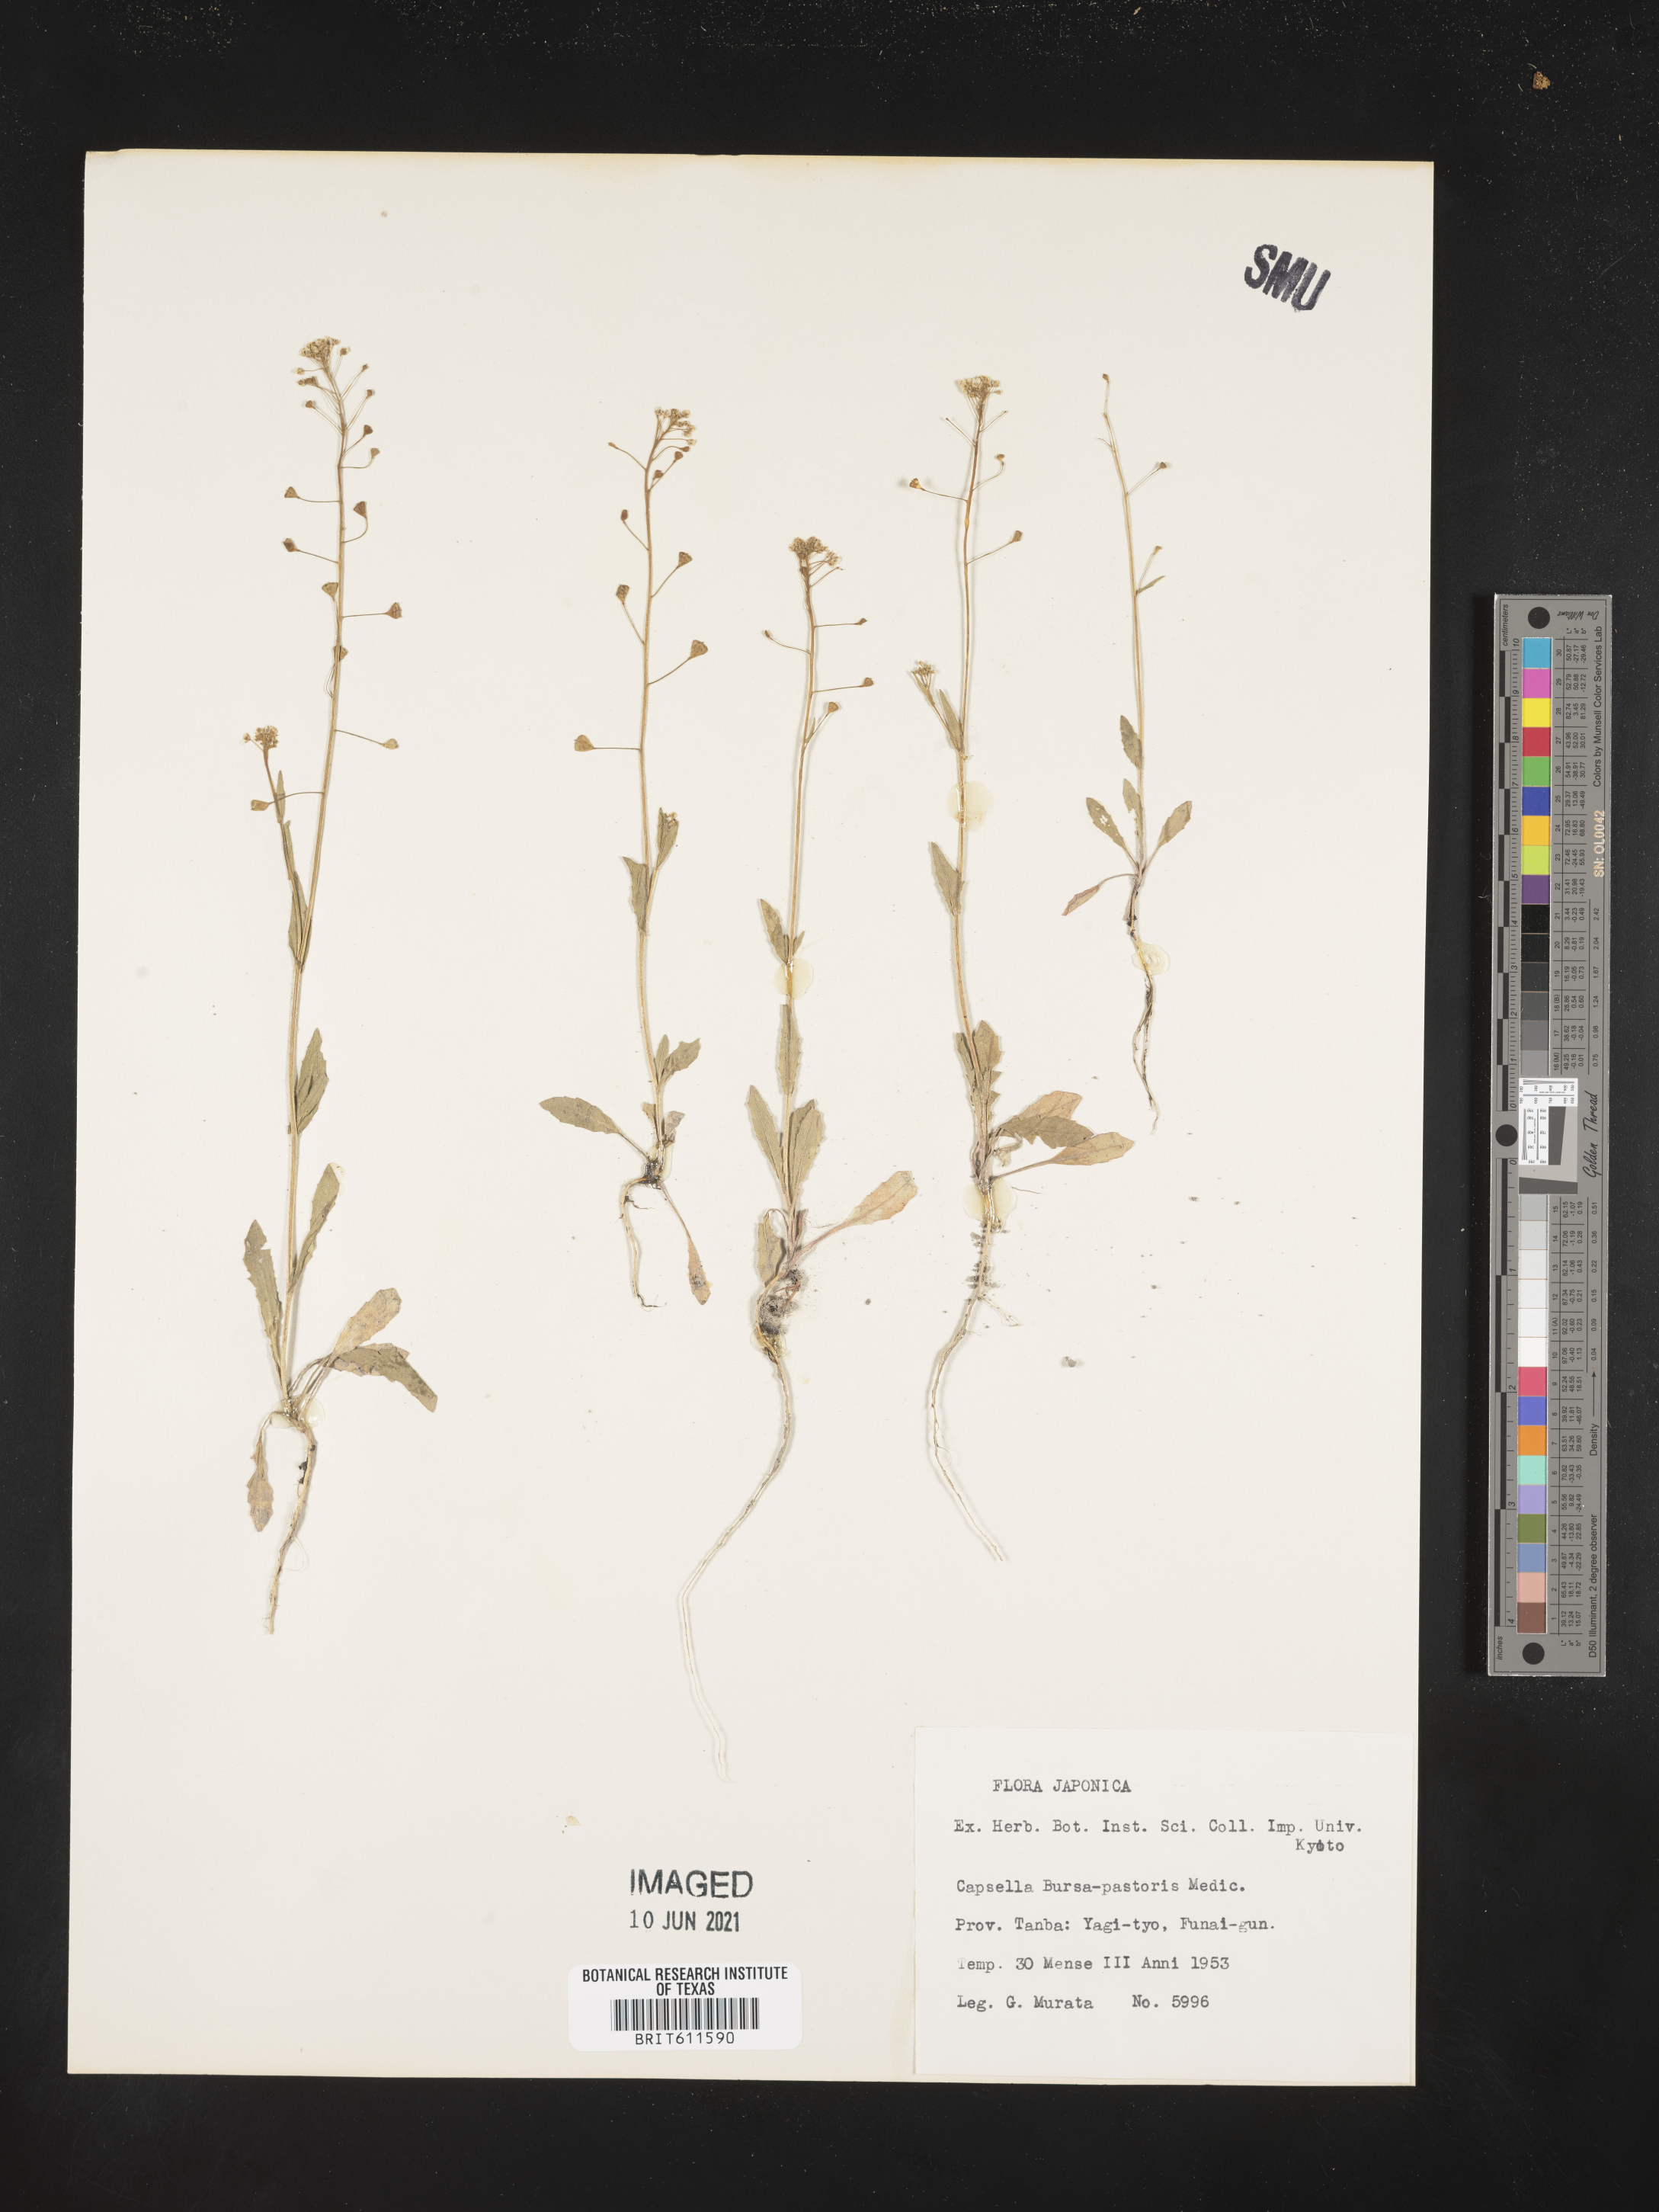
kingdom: Plantae
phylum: Tracheophyta
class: Magnoliopsida
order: Brassicales
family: Brassicaceae
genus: Capsella
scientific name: Capsella bursa-pastoris
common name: Shepherd's purse
